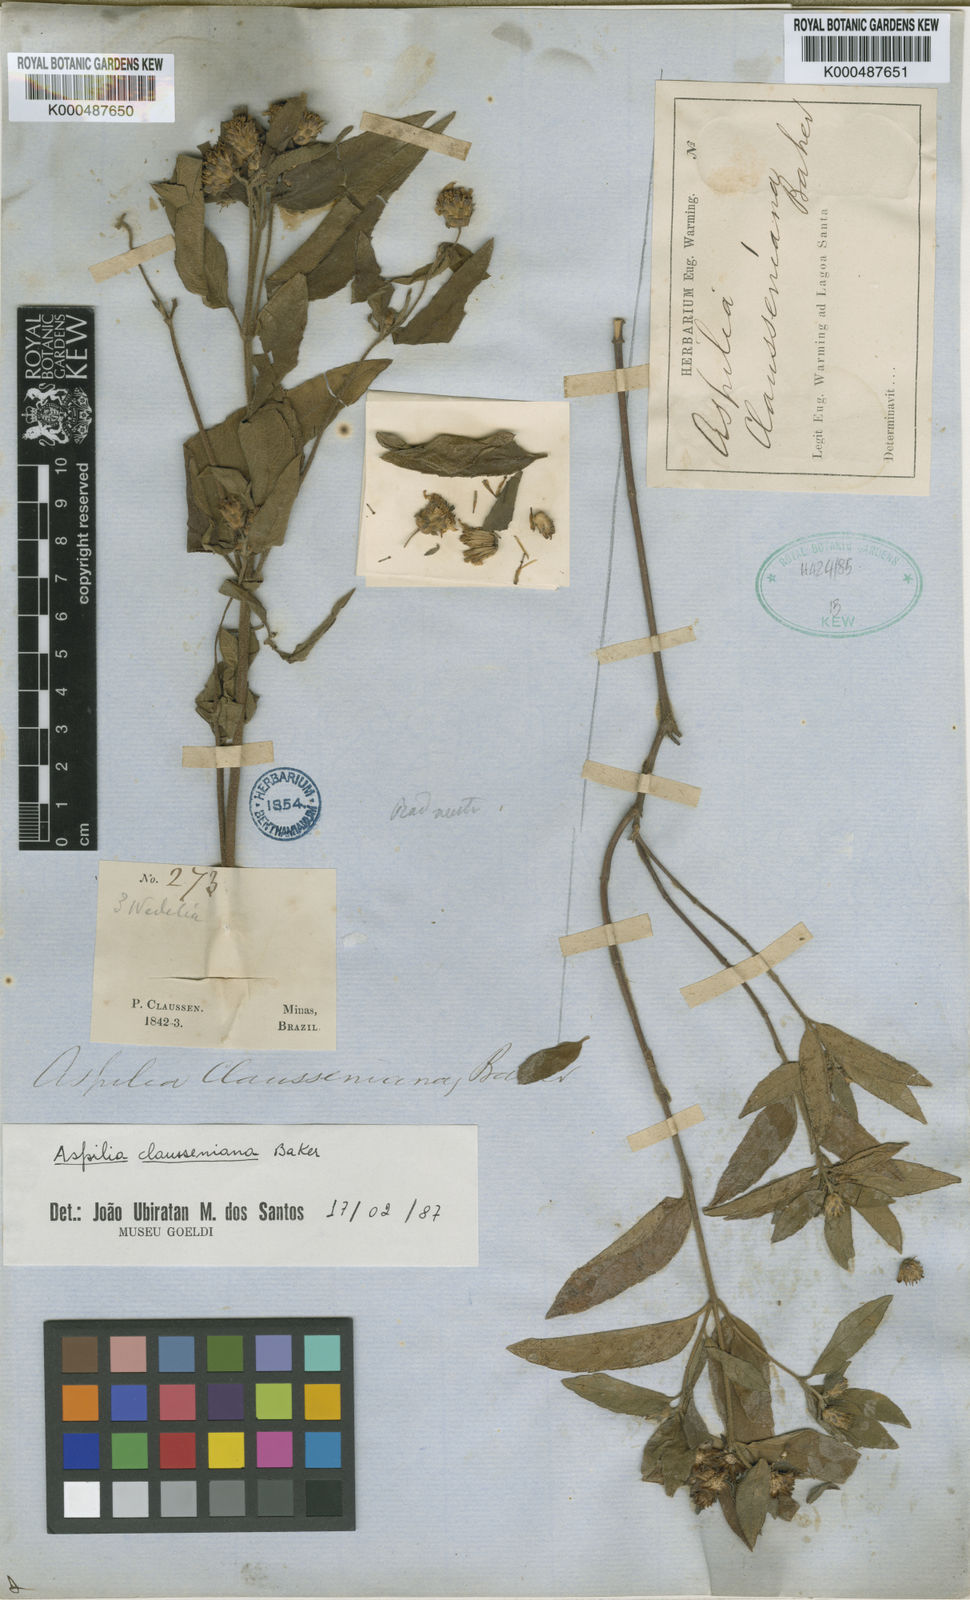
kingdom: Plantae
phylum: Tracheophyta
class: Magnoliopsida
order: Asterales
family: Asteraceae
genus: Aspilia
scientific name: Aspilia clausseniana
